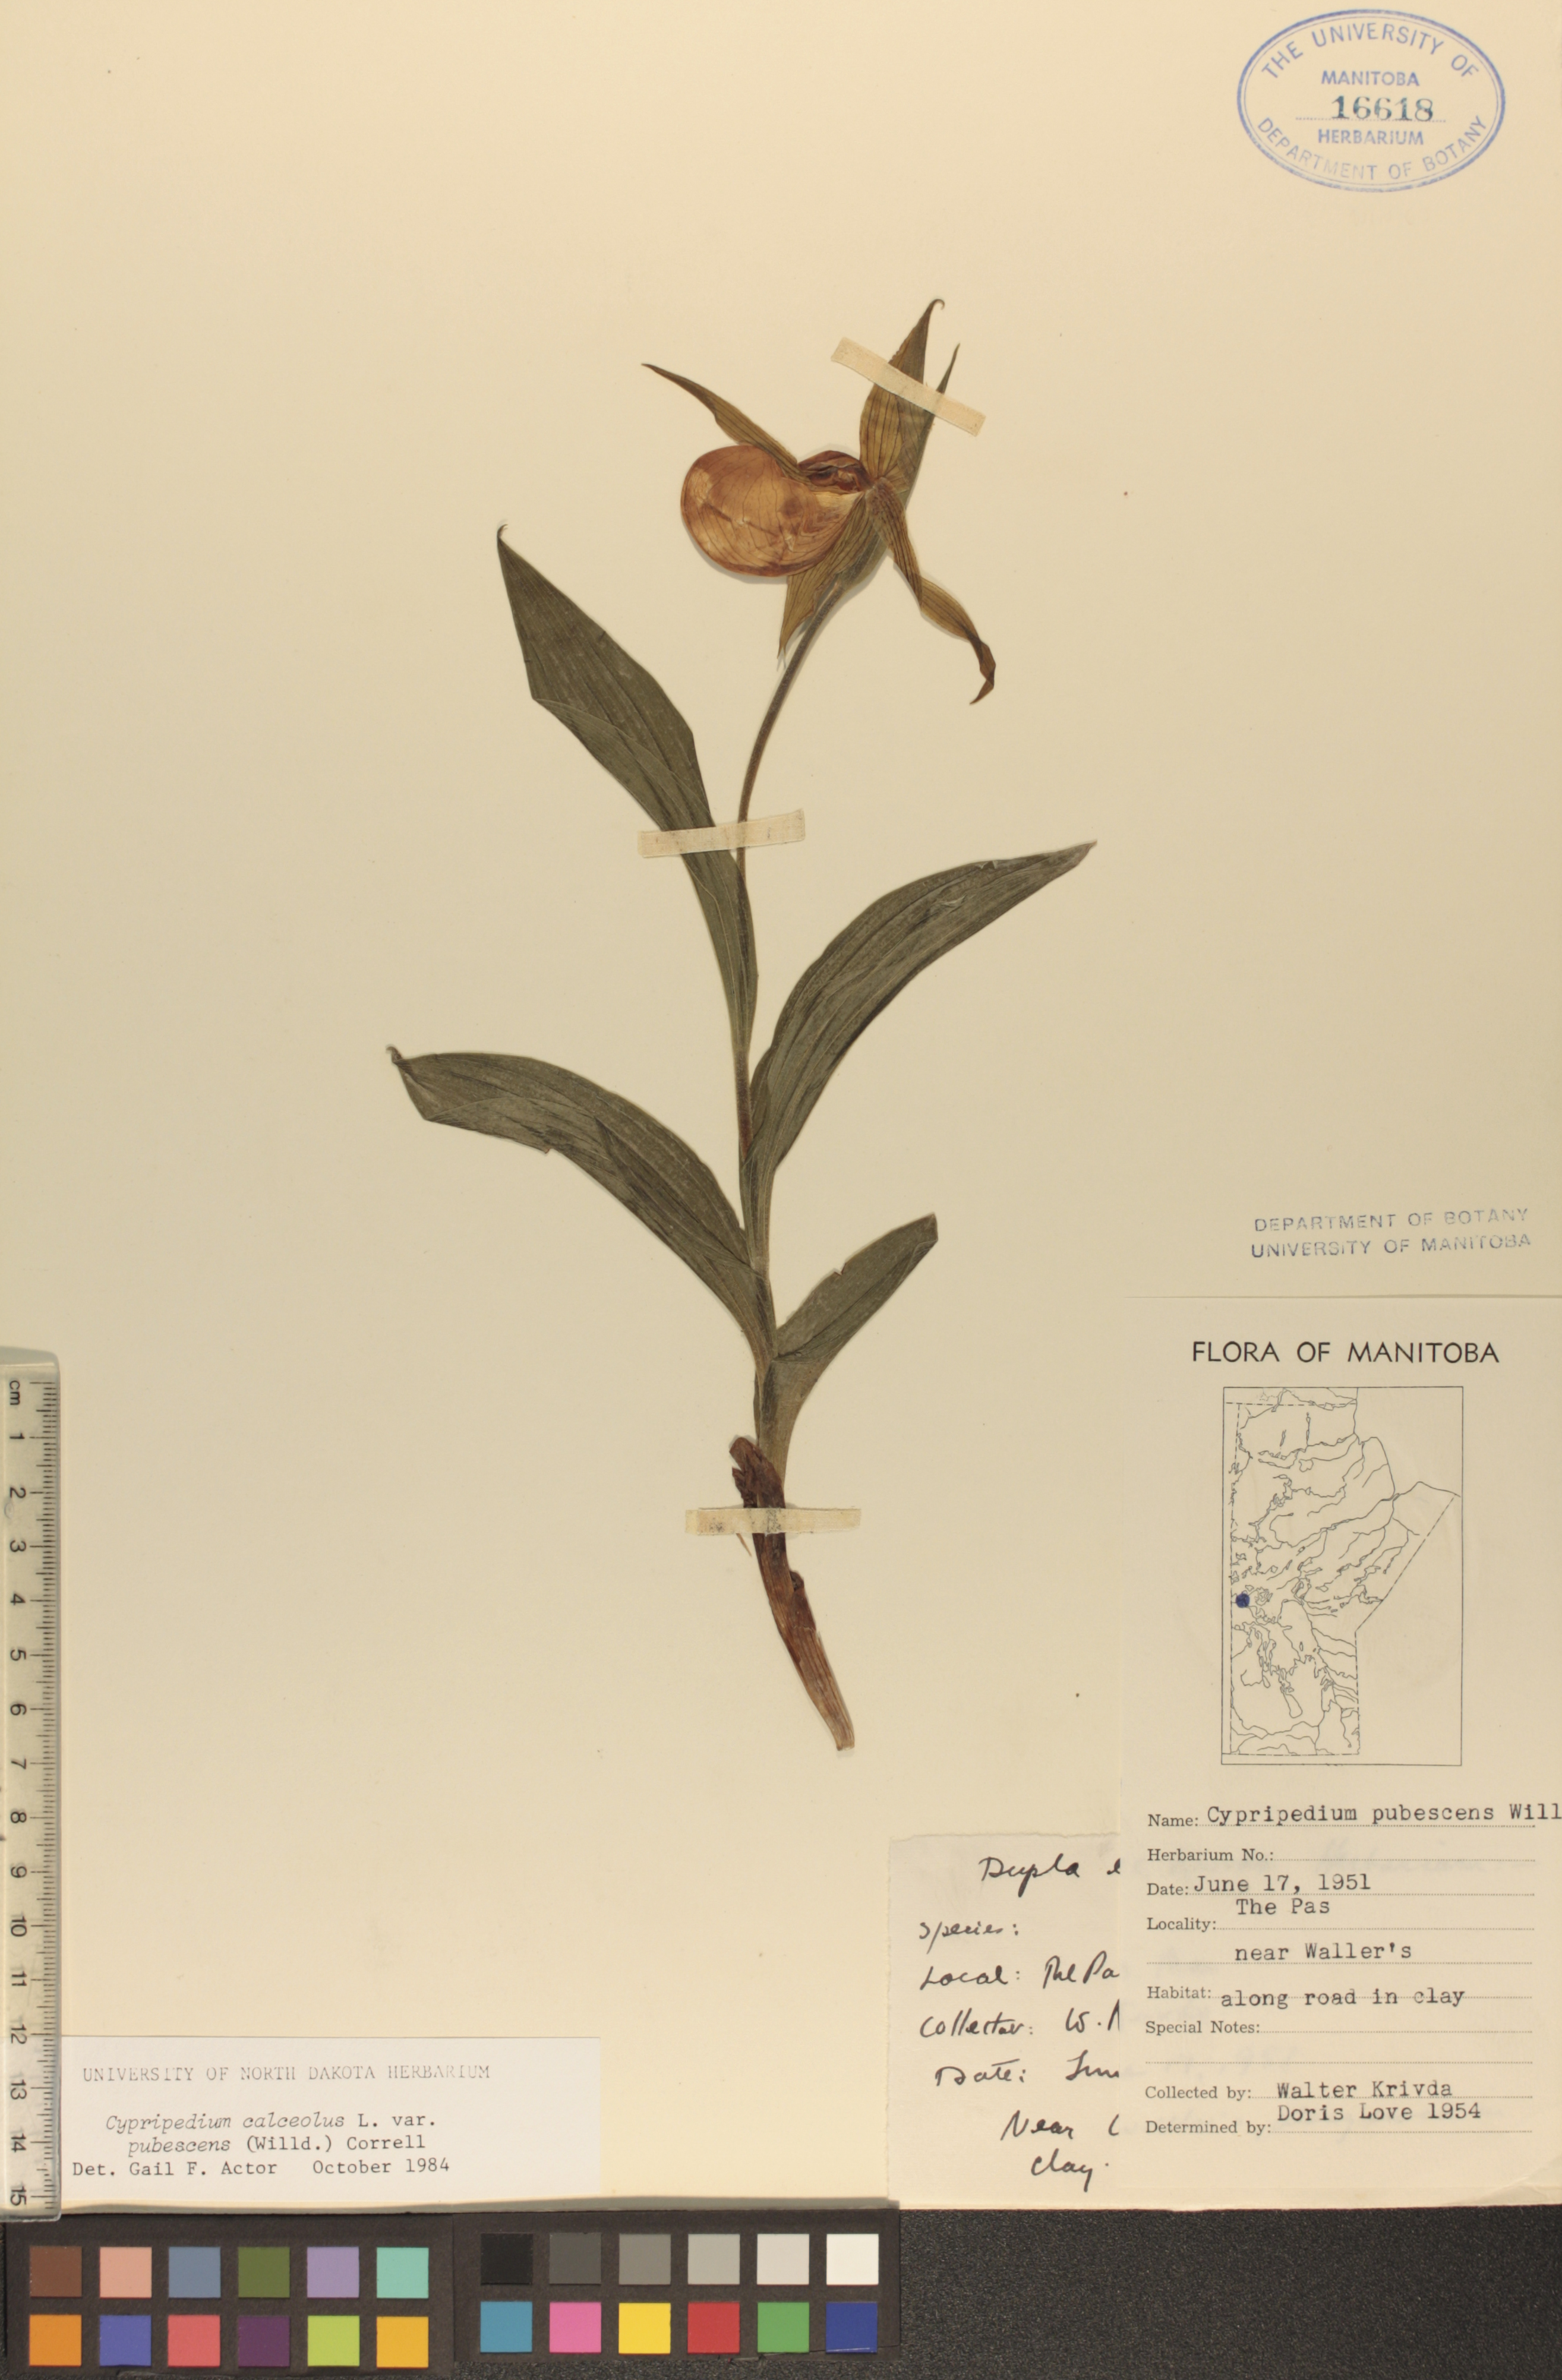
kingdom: Plantae
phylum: Tracheophyta
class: Liliopsida
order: Asparagales
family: Orchidaceae
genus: Cypripedium
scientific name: Cypripedium parviflorum
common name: American yellow lady's-slipper
